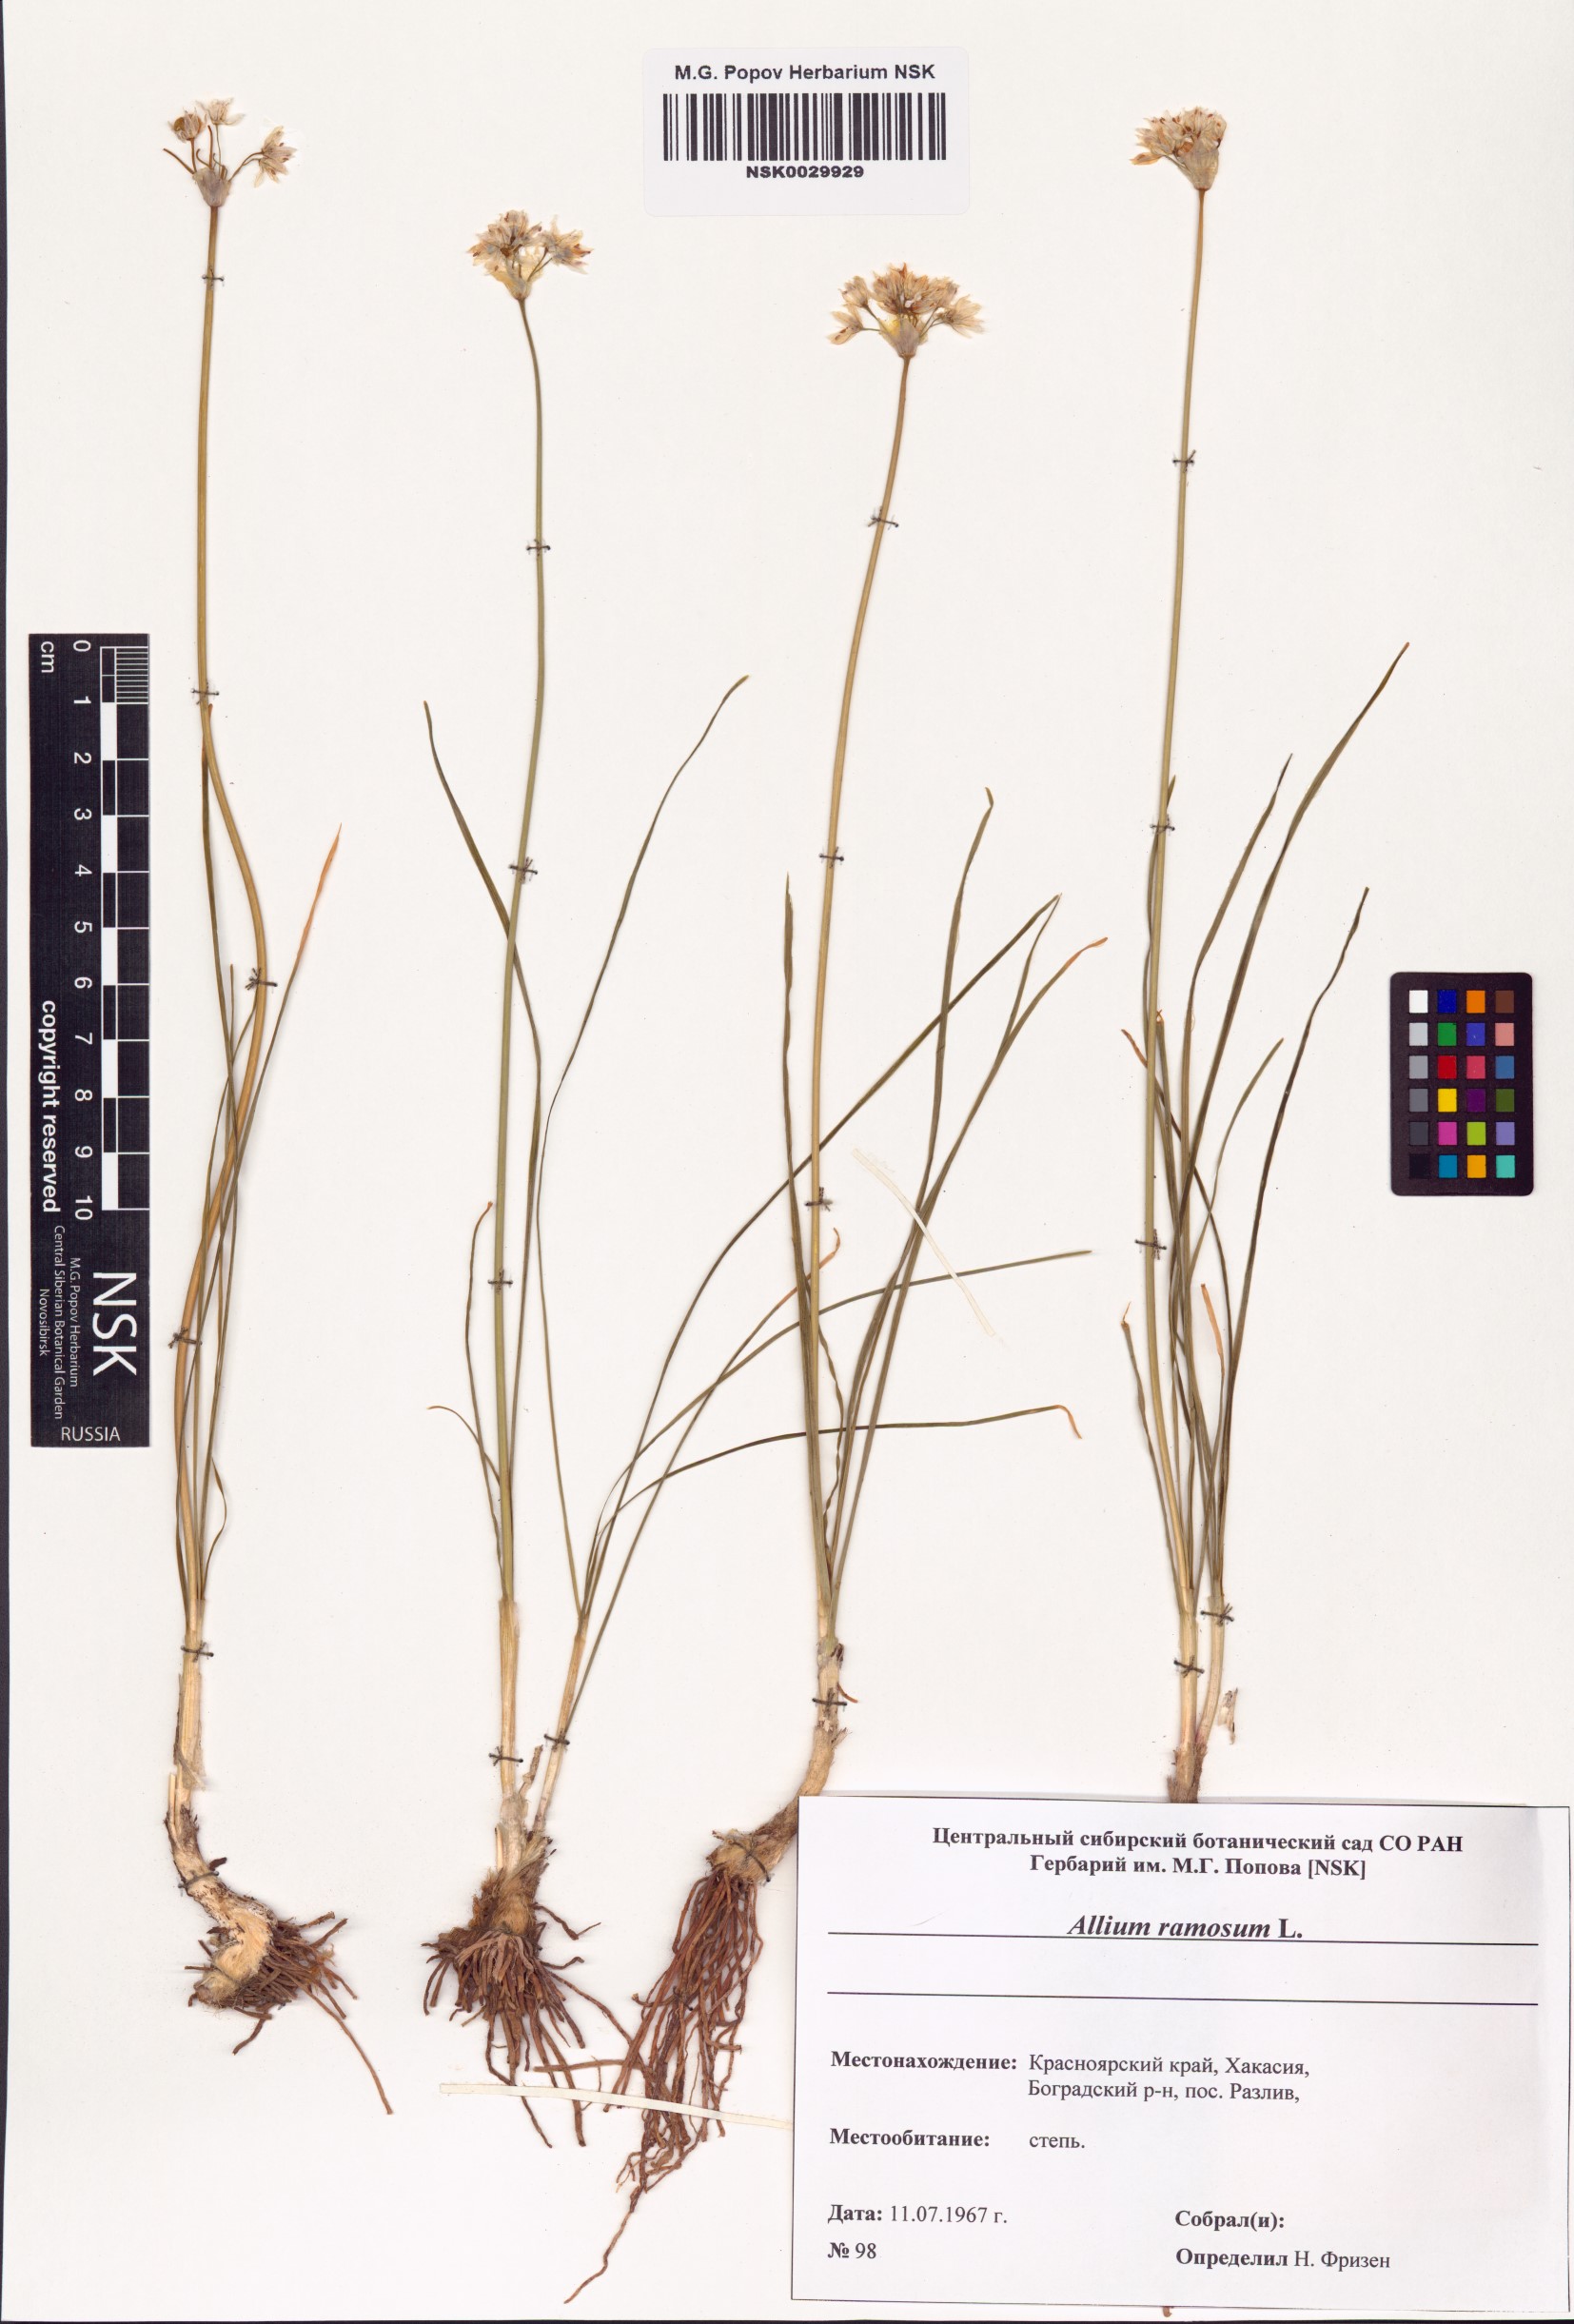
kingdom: Plantae
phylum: Tracheophyta
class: Liliopsida
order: Asparagales
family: Amaryllidaceae
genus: Allium
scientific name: Allium ramosum
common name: Fragrant garlic
